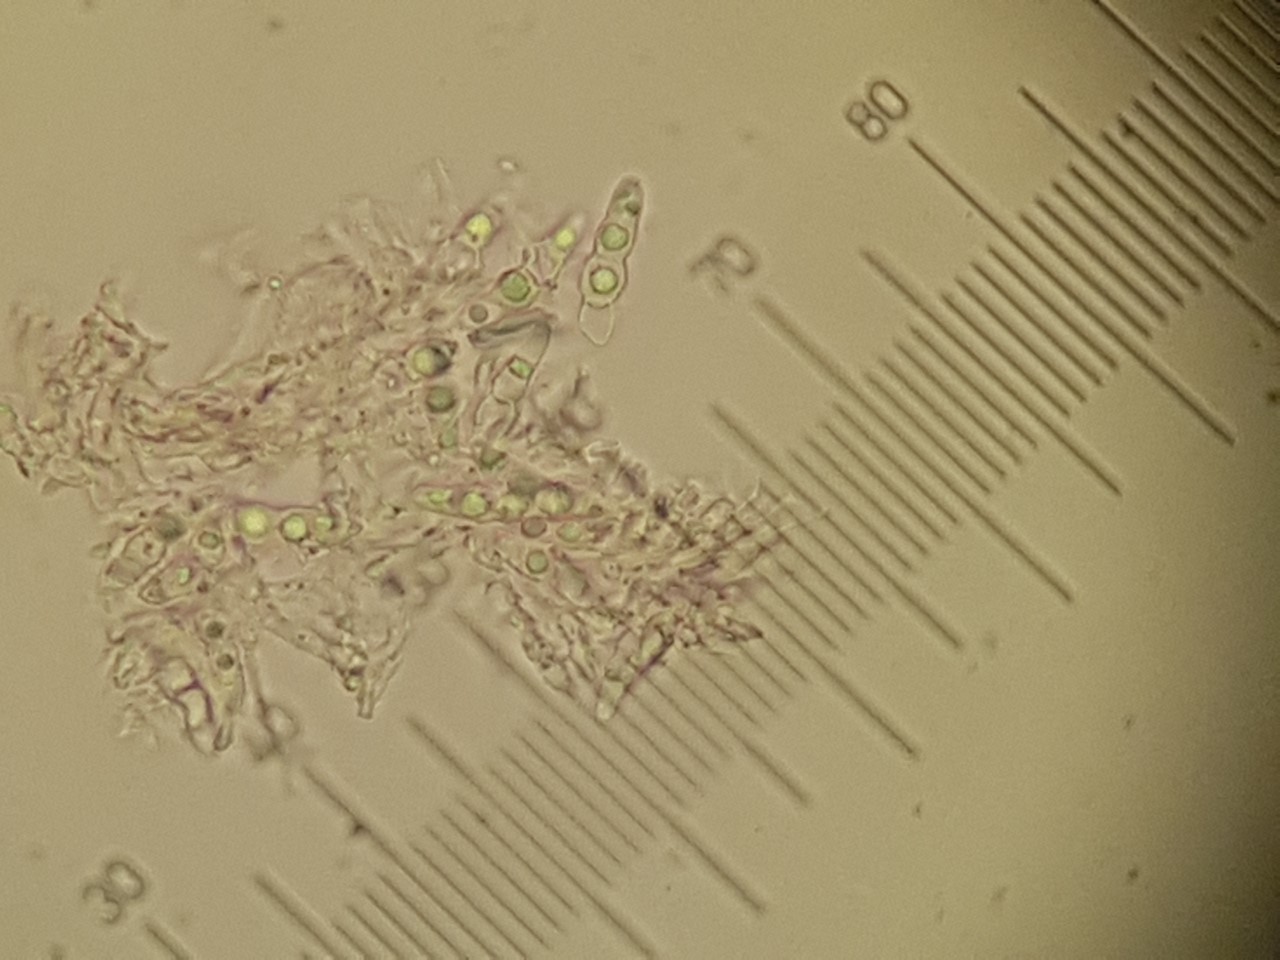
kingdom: Plantae
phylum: Bryophyta
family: Dothideomycetes
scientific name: Dothideomycetes
